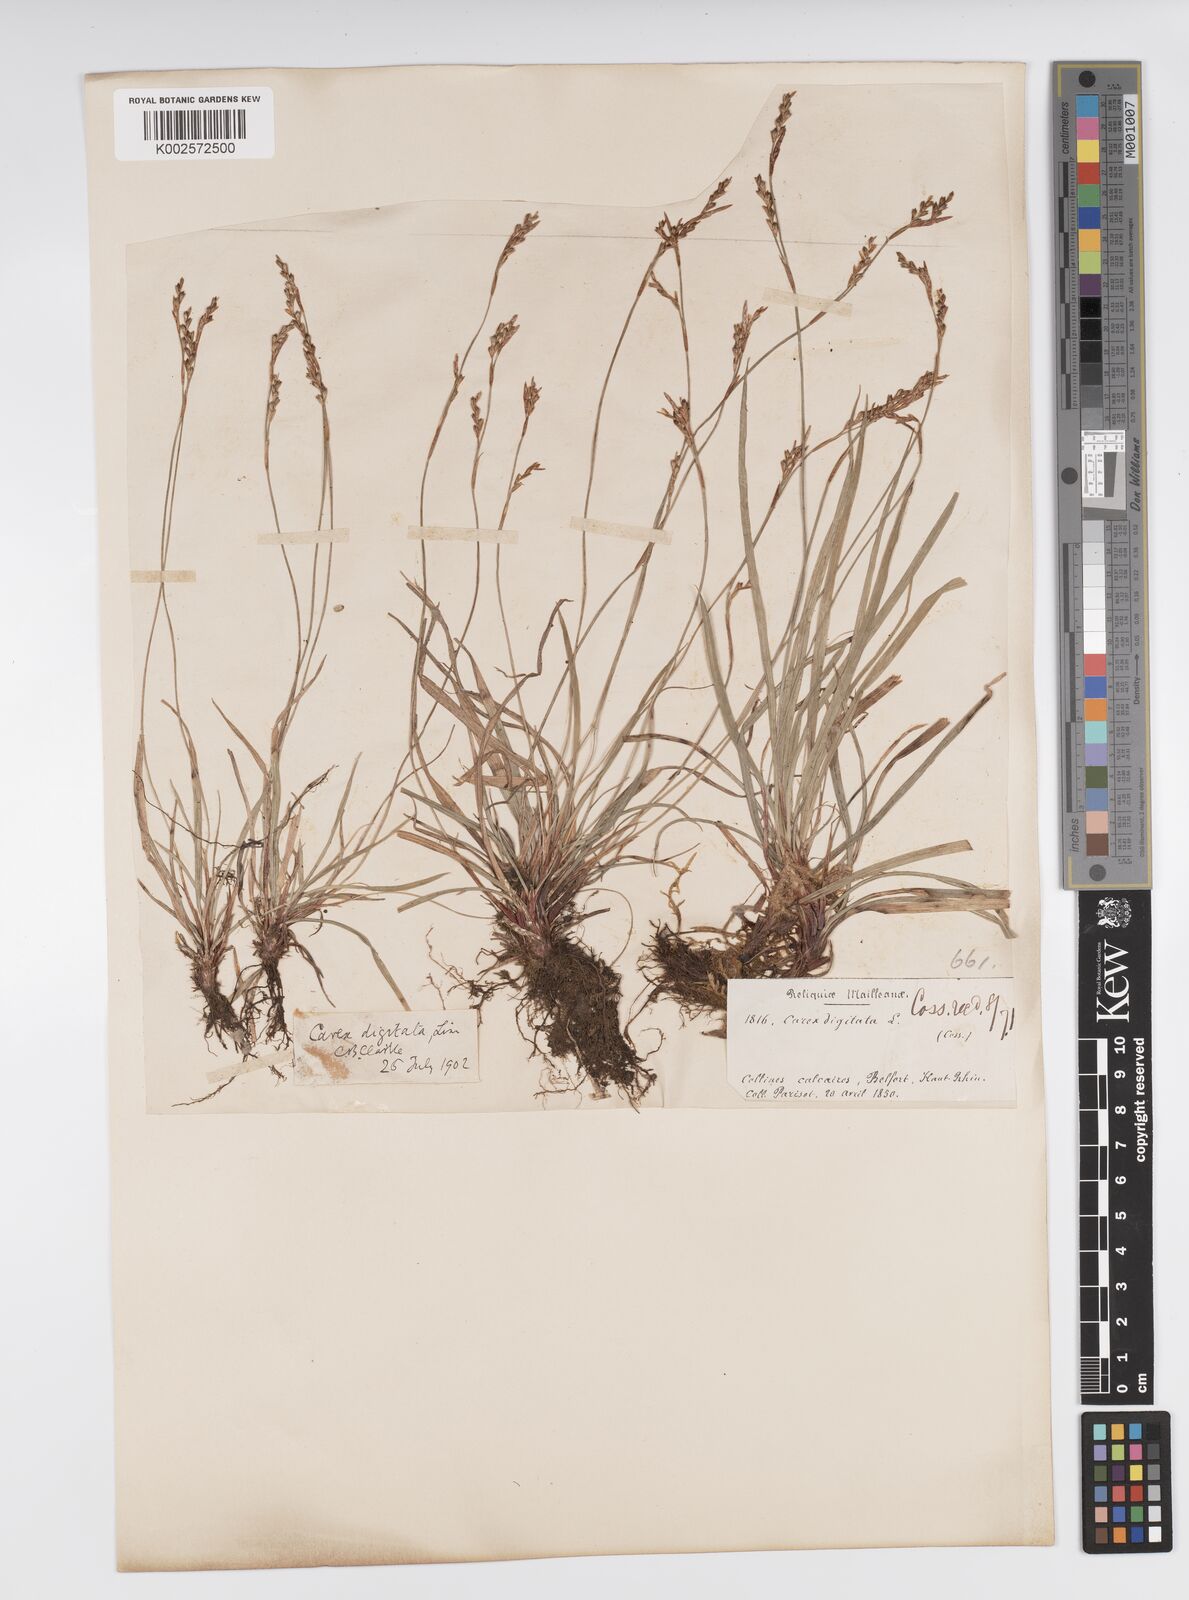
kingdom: Plantae
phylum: Tracheophyta
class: Liliopsida
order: Poales
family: Cyperaceae
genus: Carex
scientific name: Carex digitata
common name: Fingered sedge
